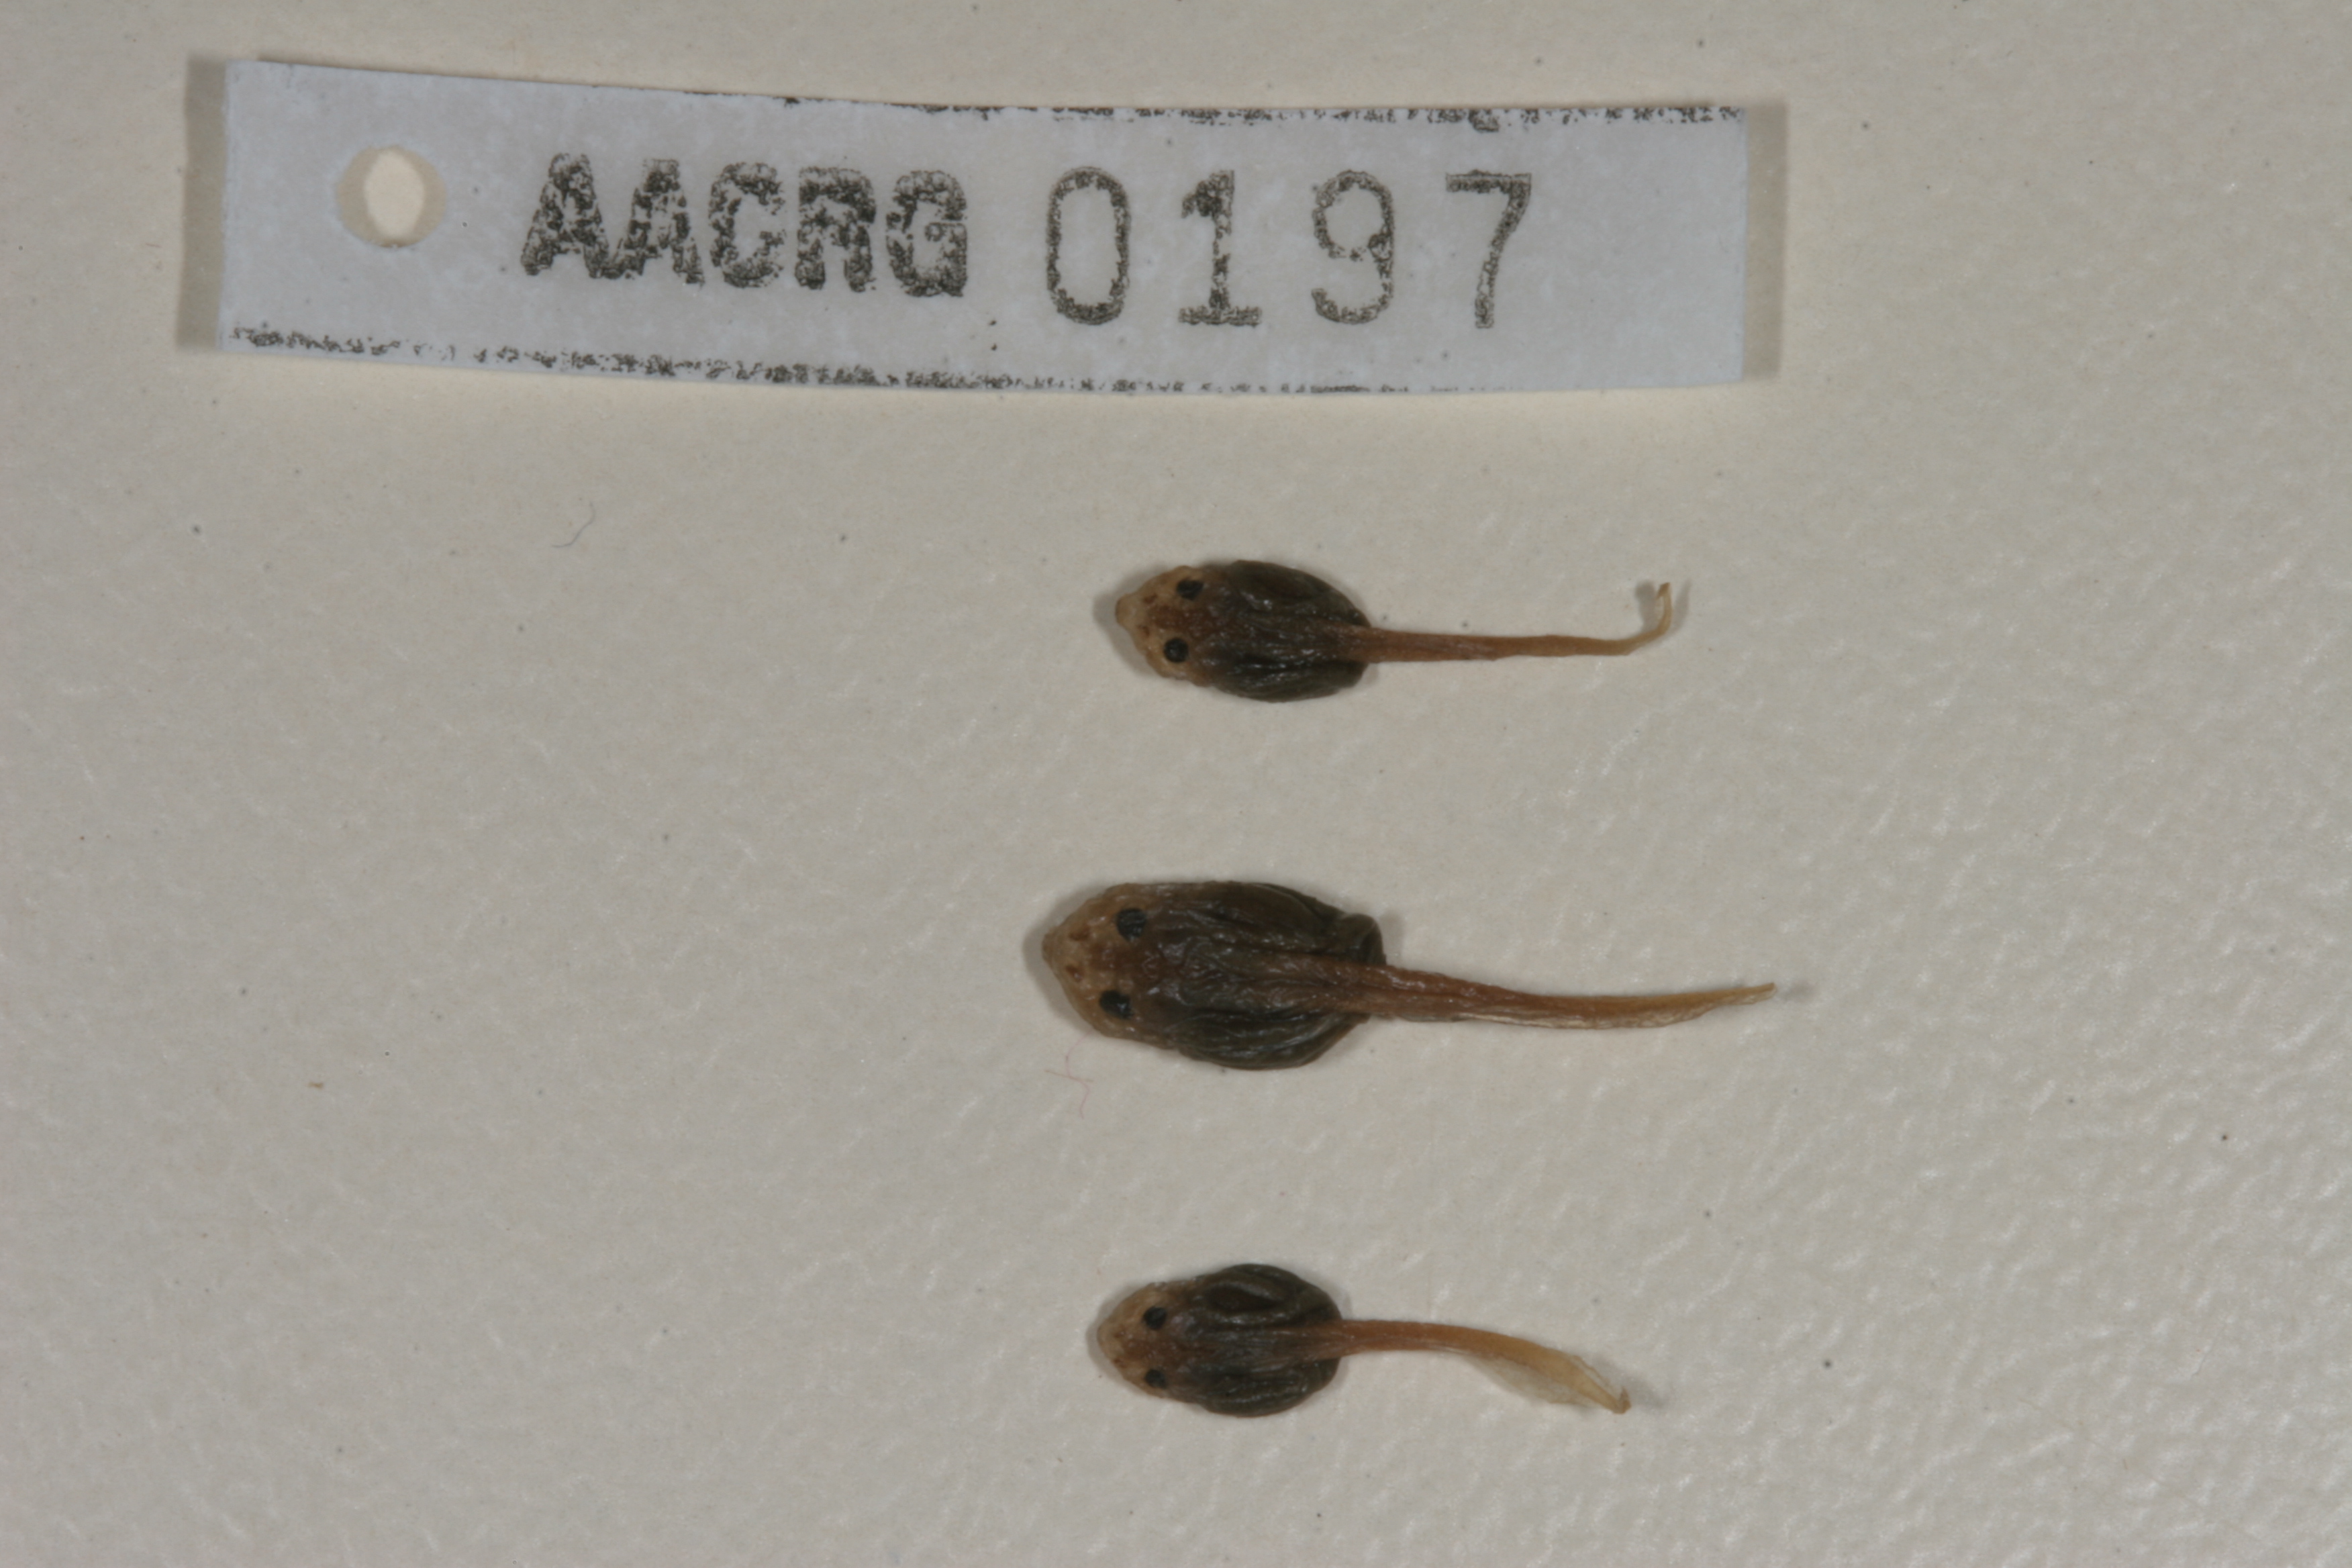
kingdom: Animalia
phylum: Chordata
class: Amphibia
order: Anura
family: Bufonidae
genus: Poyntonophrynus
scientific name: Poyntonophrynus vertebralis
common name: Southern pygmy toad
